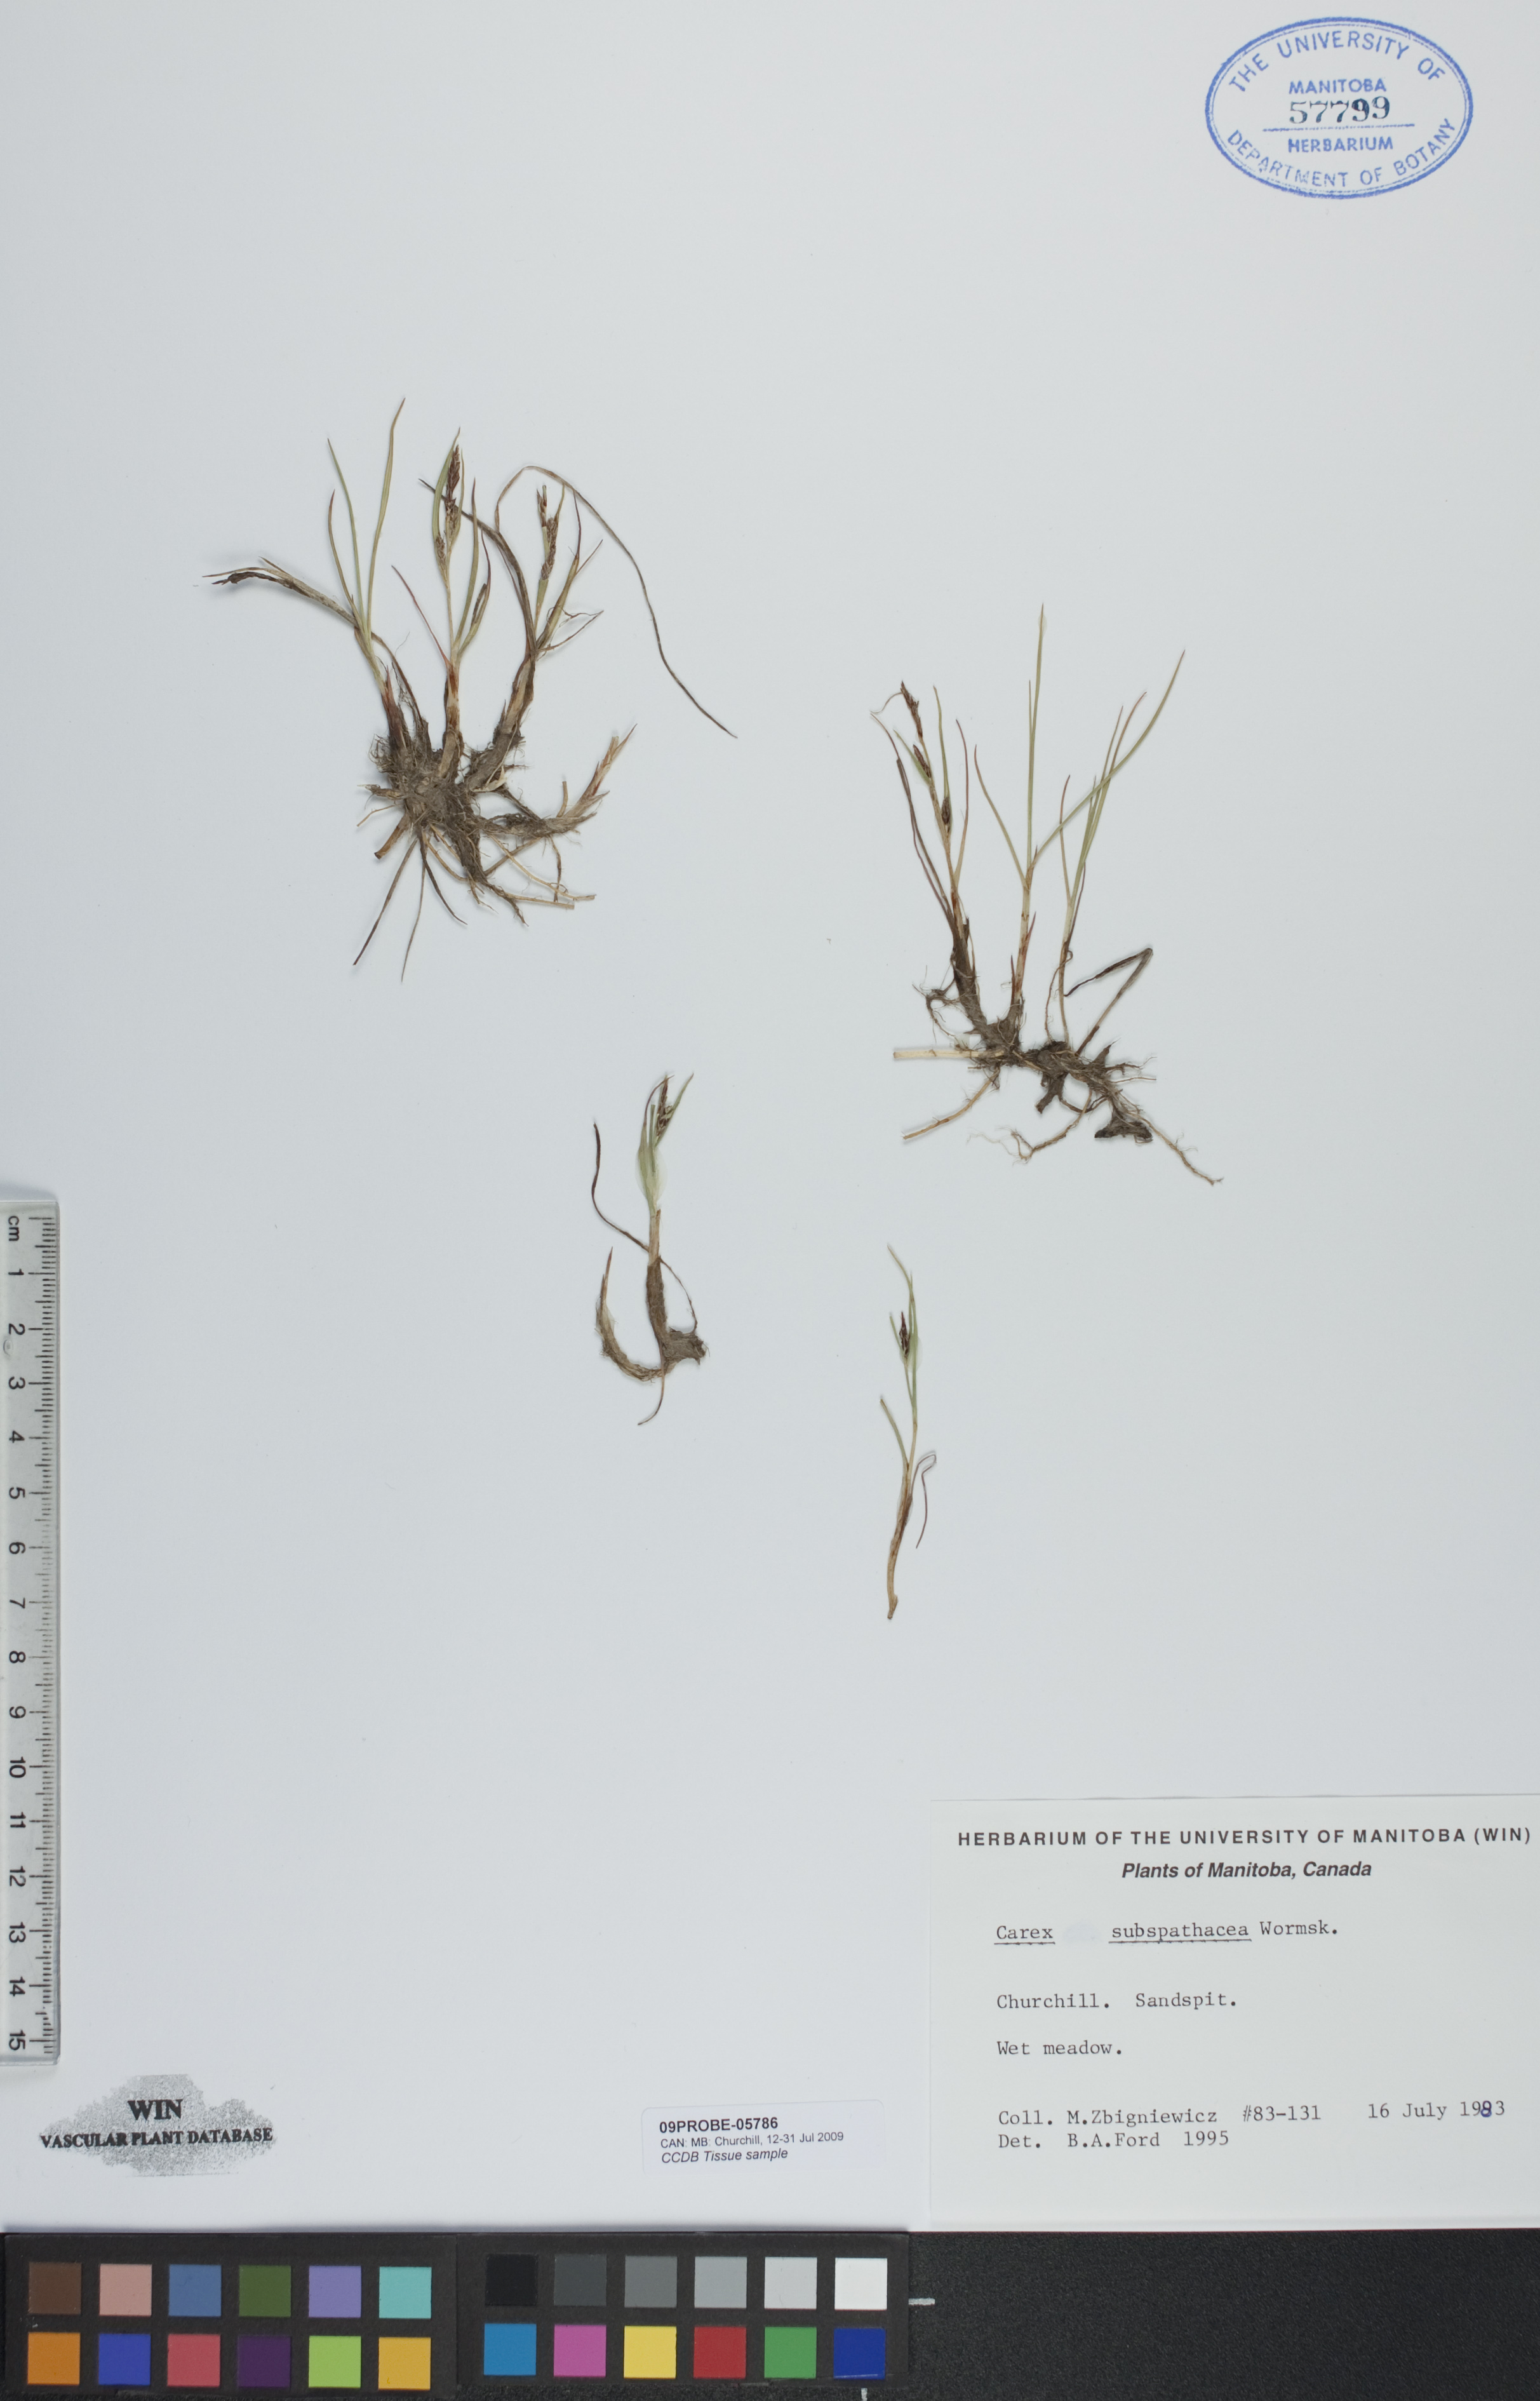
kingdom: Plantae
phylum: Tracheophyta
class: Liliopsida
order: Poales
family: Cyperaceae
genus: Carex
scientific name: Carex subspathacea
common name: Hoppner's sedge
